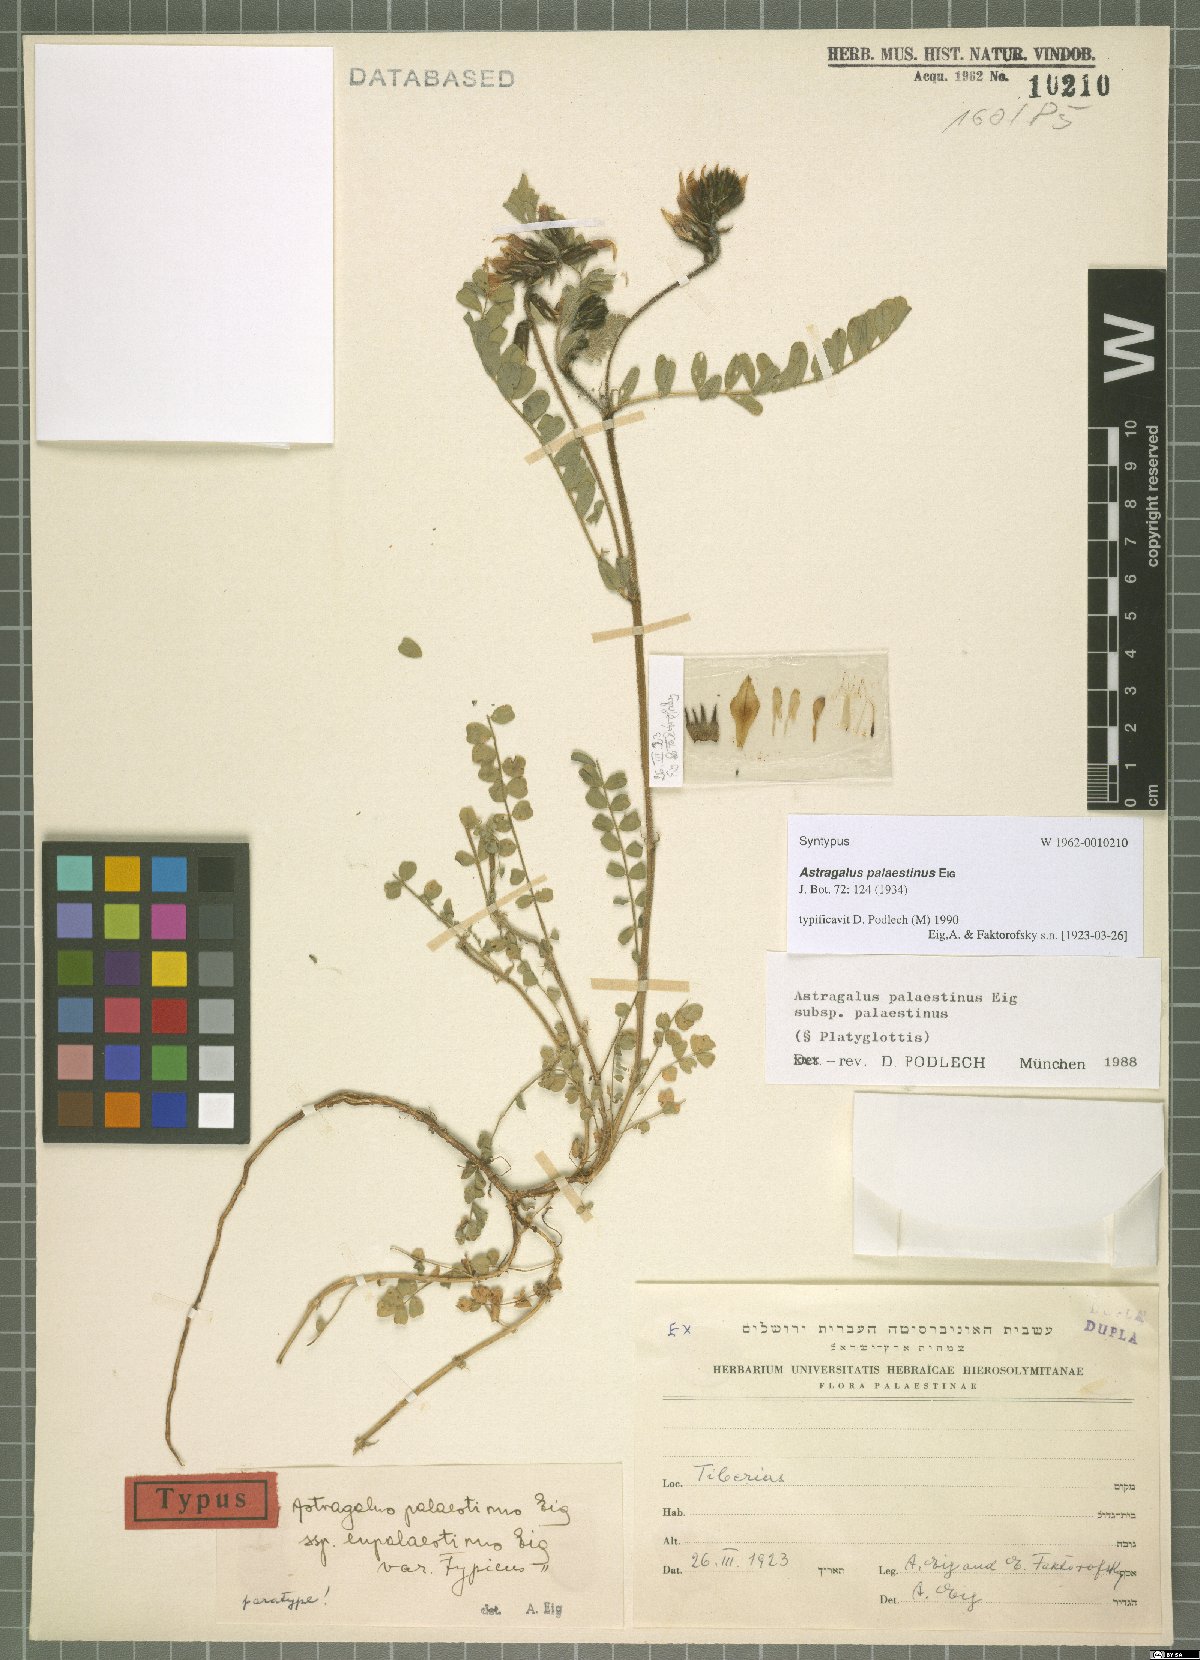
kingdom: Plantae
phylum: Tracheophyta
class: Magnoliopsida
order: Fabales
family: Fabaceae
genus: Astragalus
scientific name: Astragalus palaestinus
